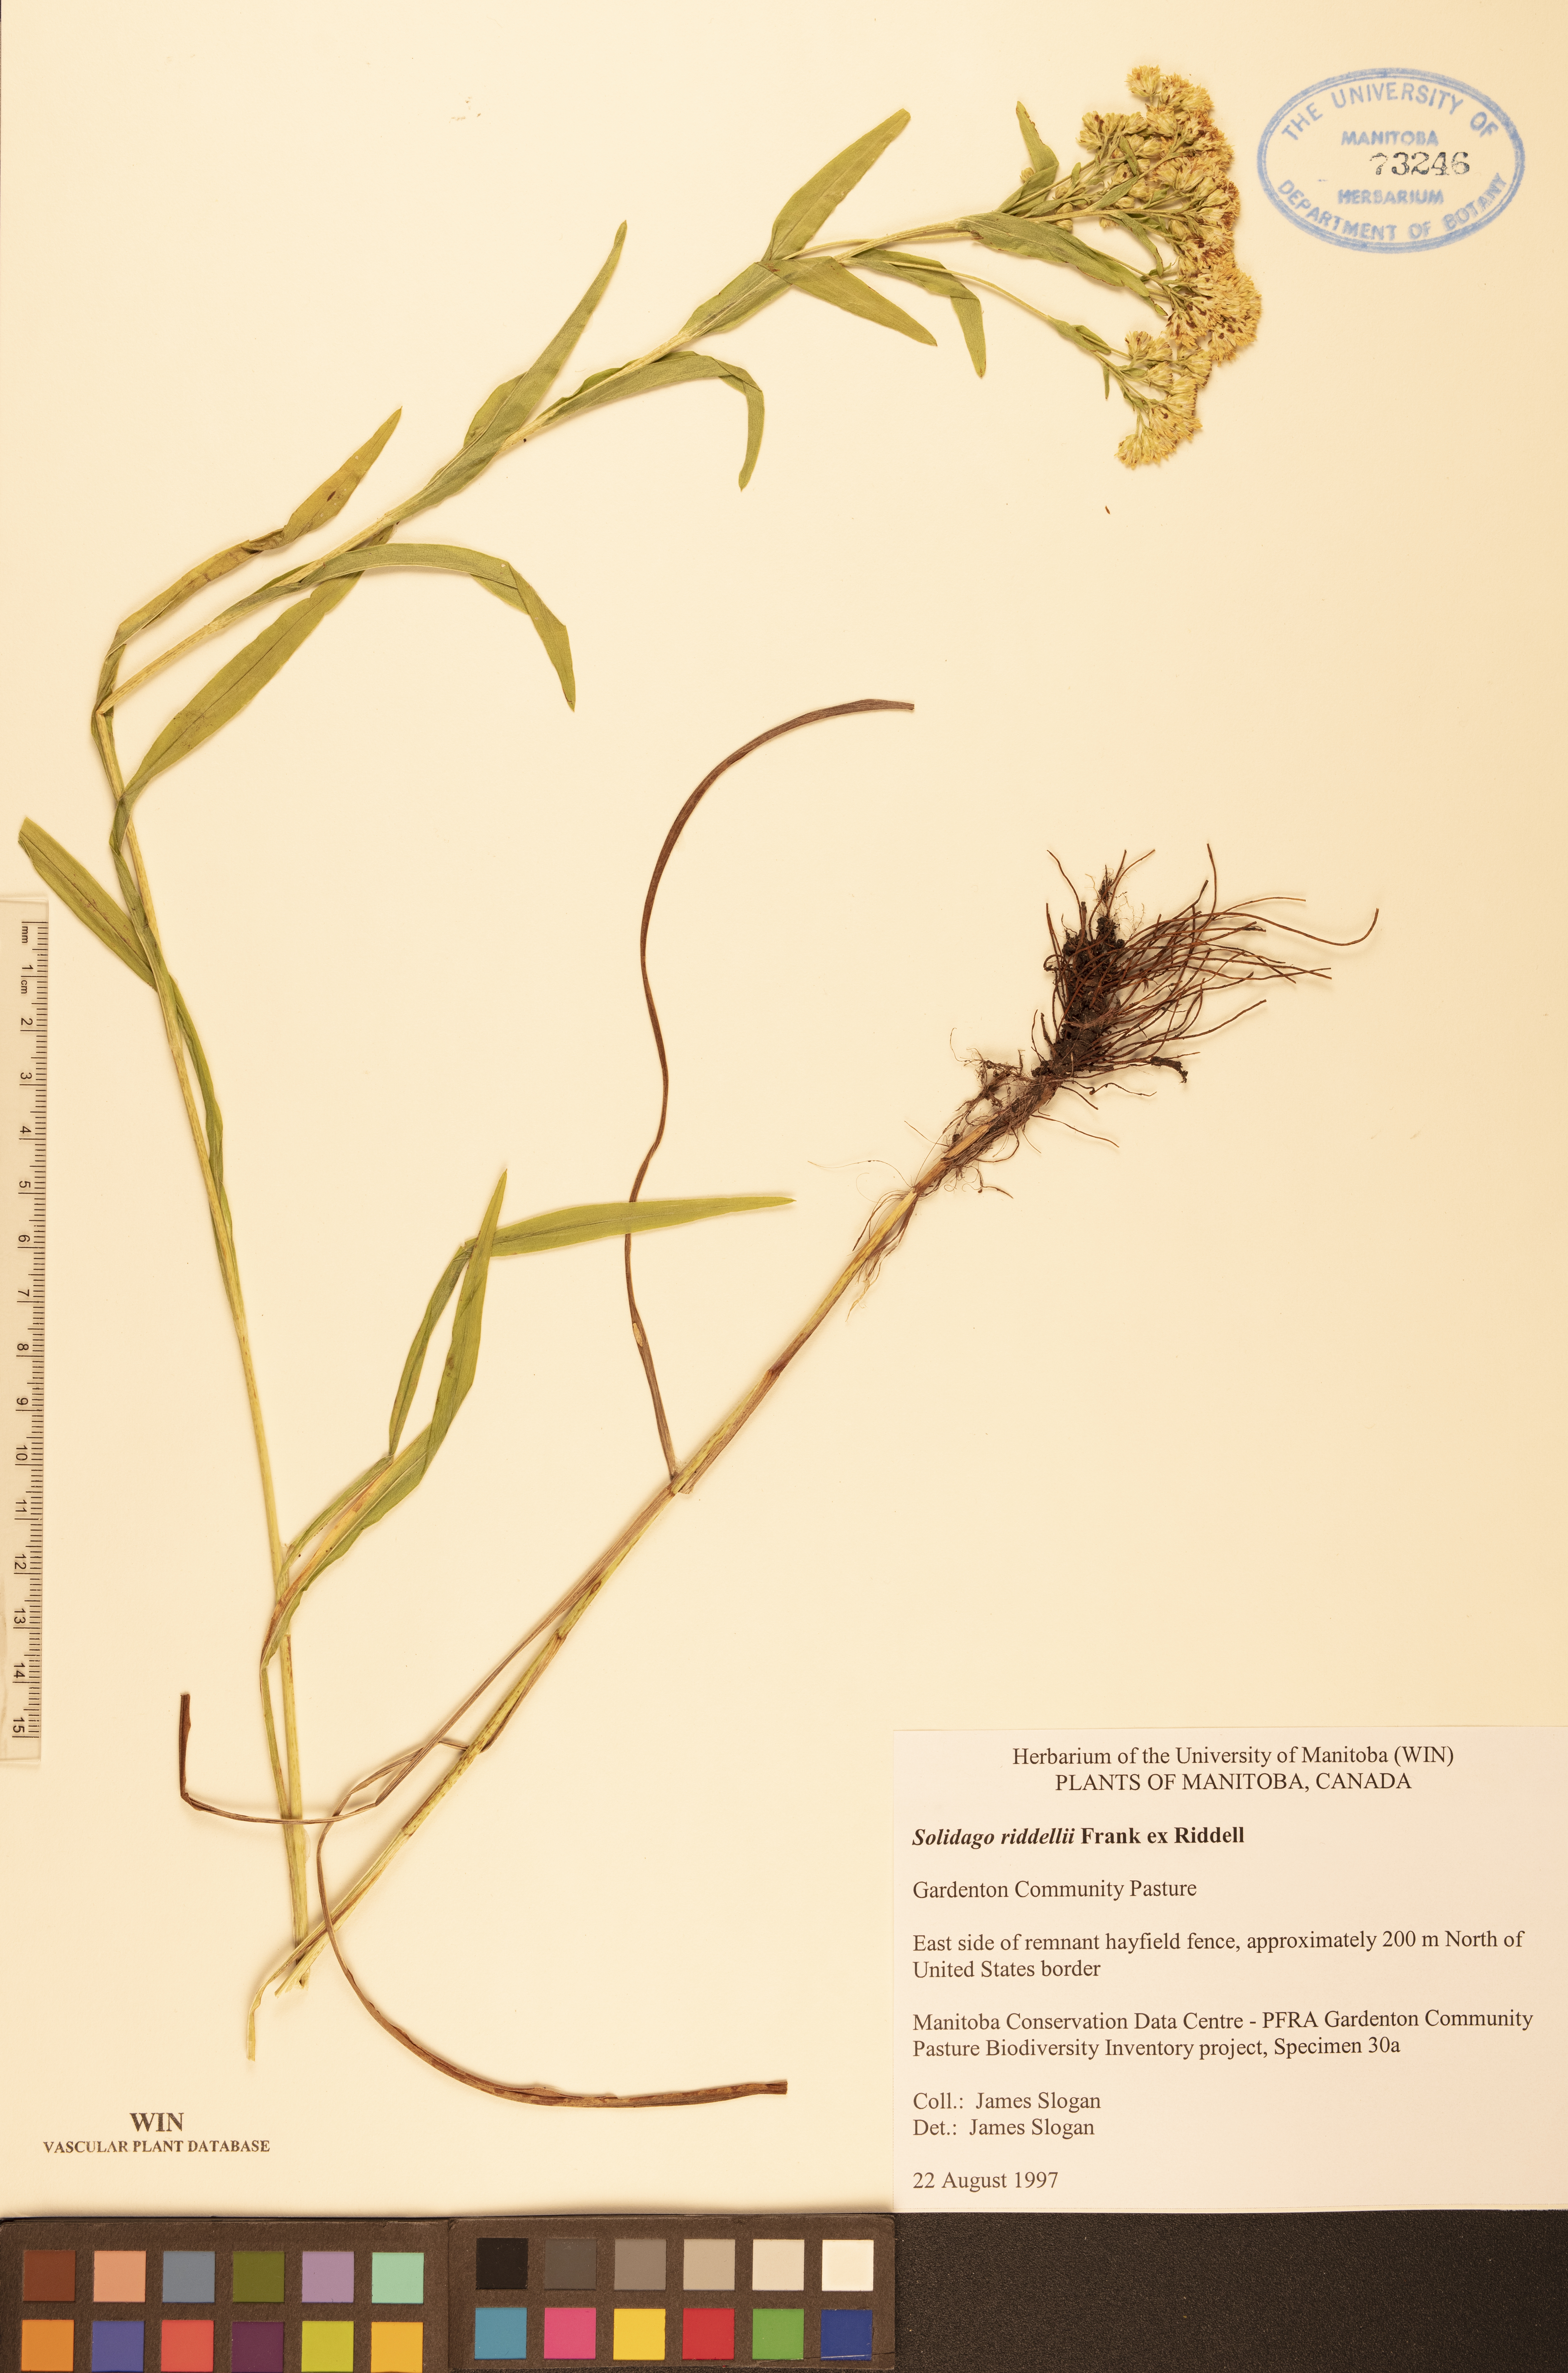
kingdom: Plantae
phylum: Tracheophyta
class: Magnoliopsida
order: Asterales
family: Asteraceae
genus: Solidago
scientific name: Solidago riddellii
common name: Riddell's goldenrod
